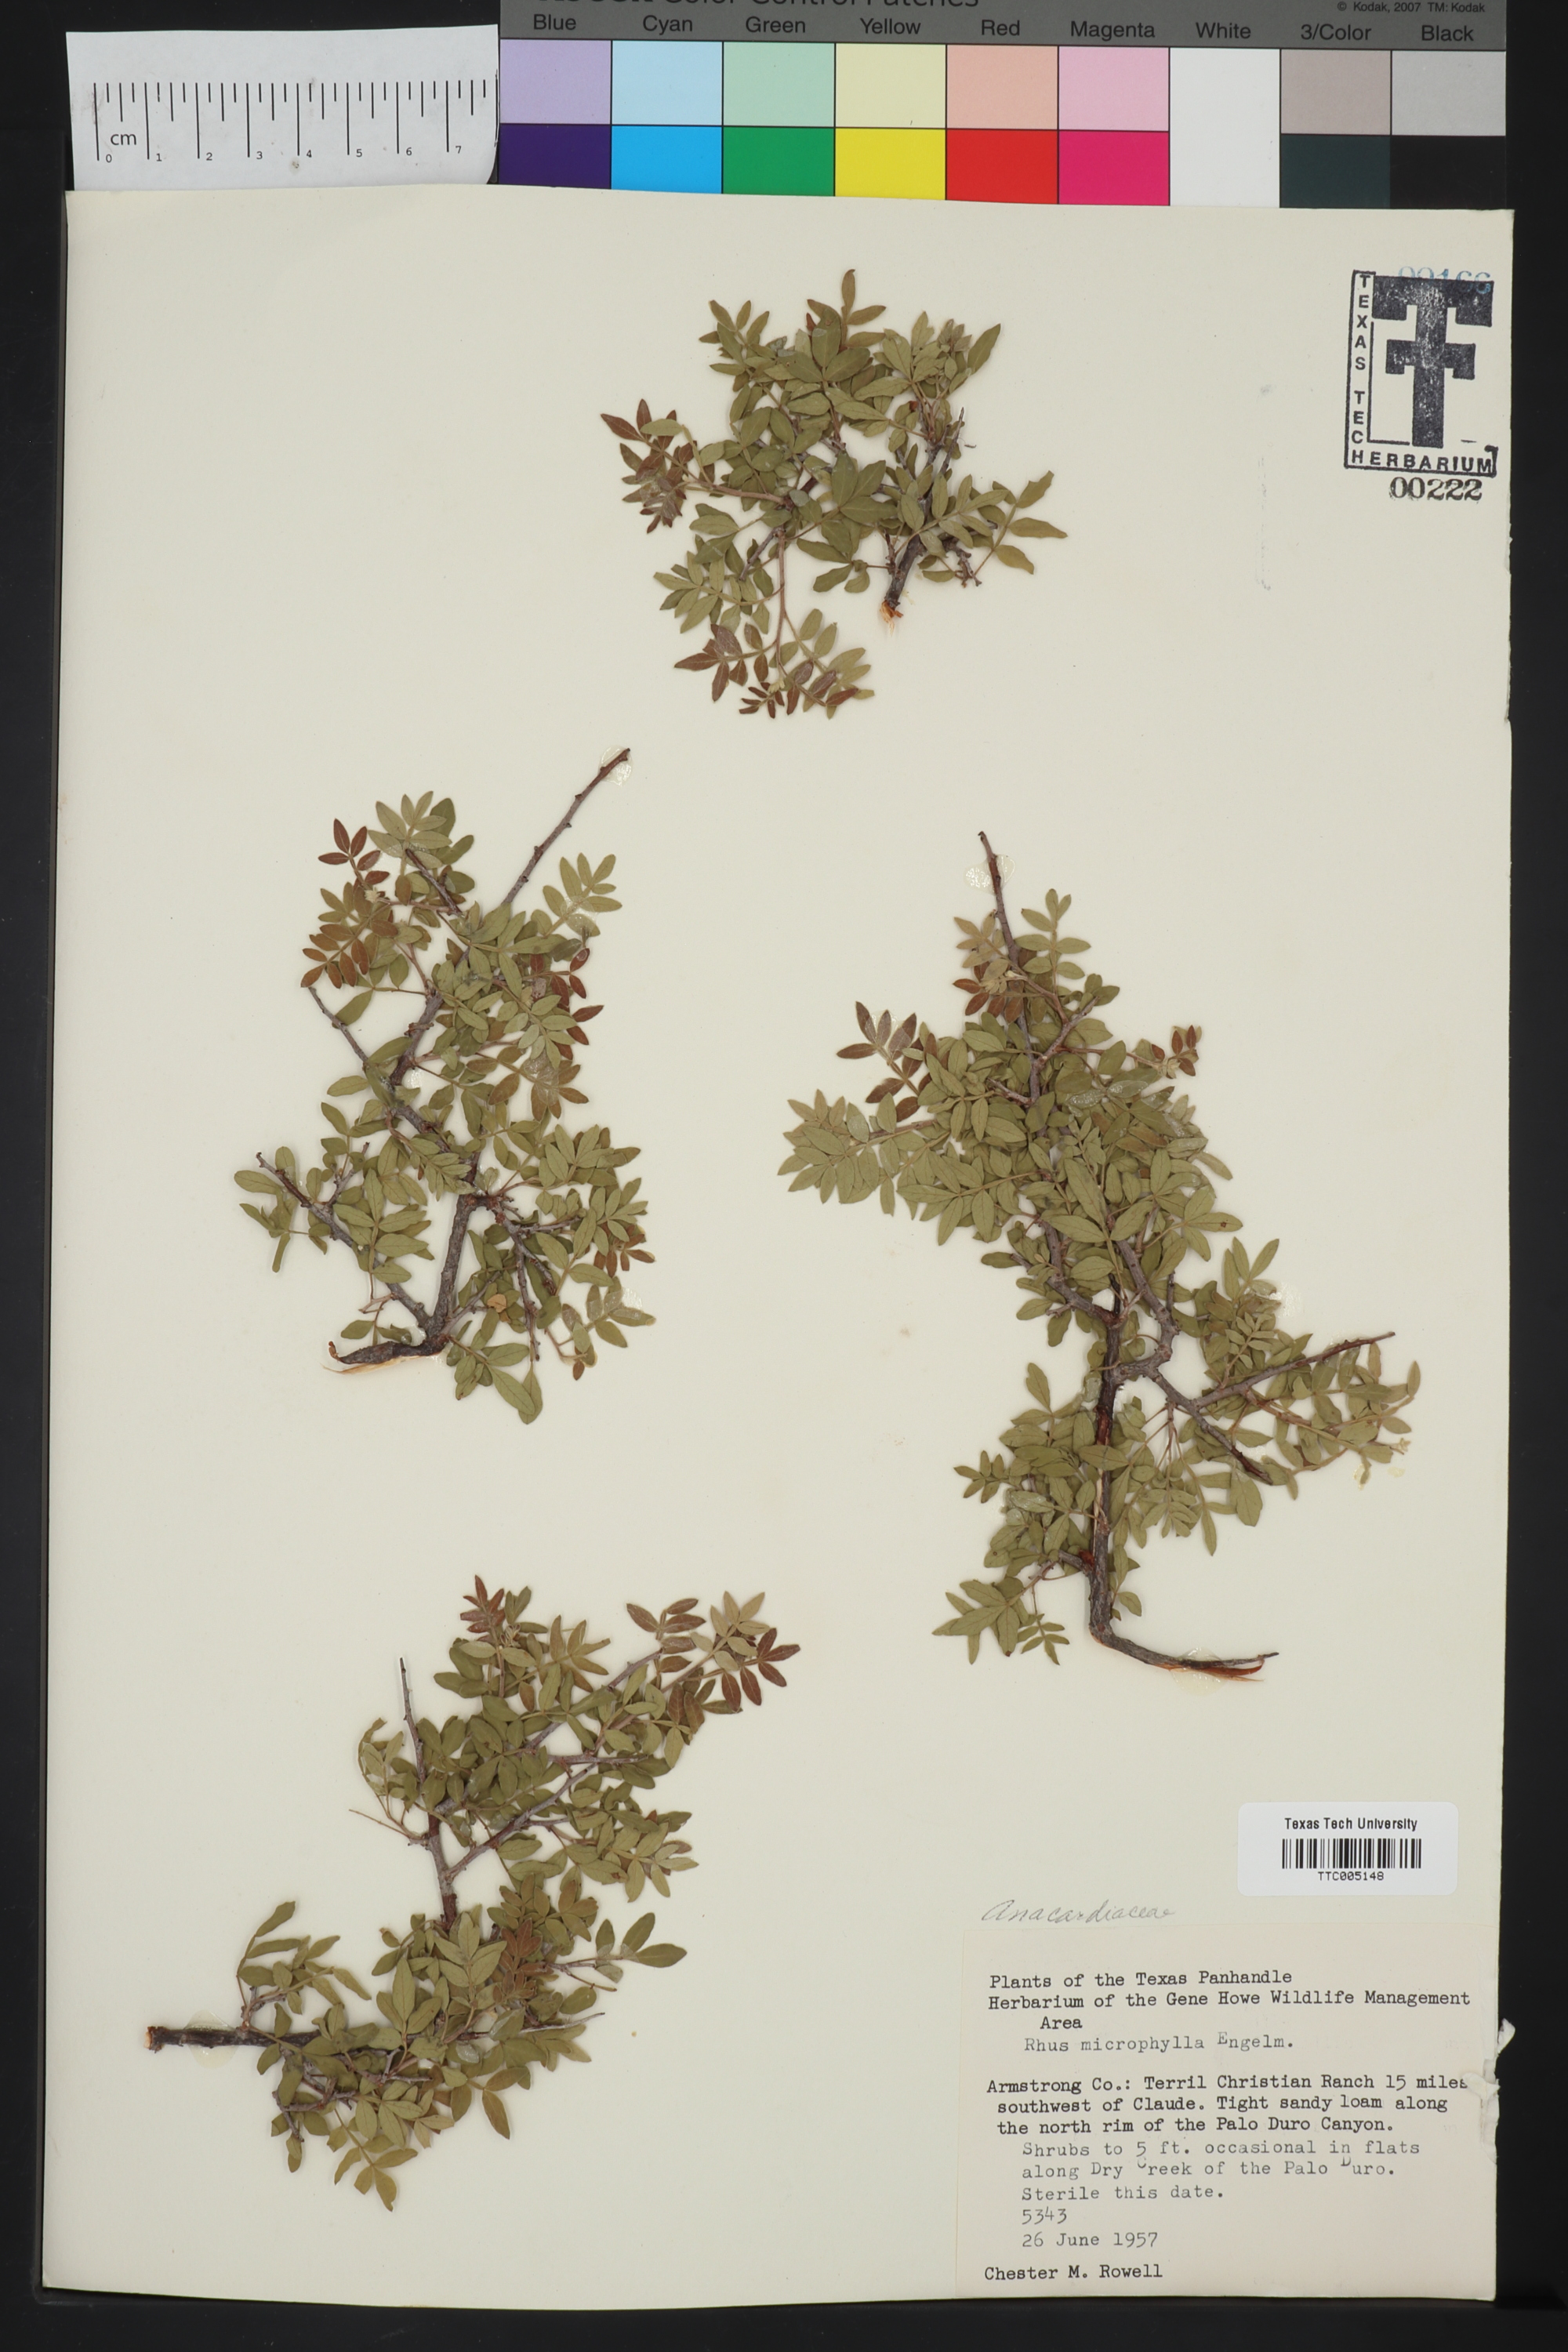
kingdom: Plantae
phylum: Tracheophyta
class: Magnoliopsida
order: Sapindales
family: Anacardiaceae
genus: Rhus
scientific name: Rhus microphylla
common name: Desert sumac
